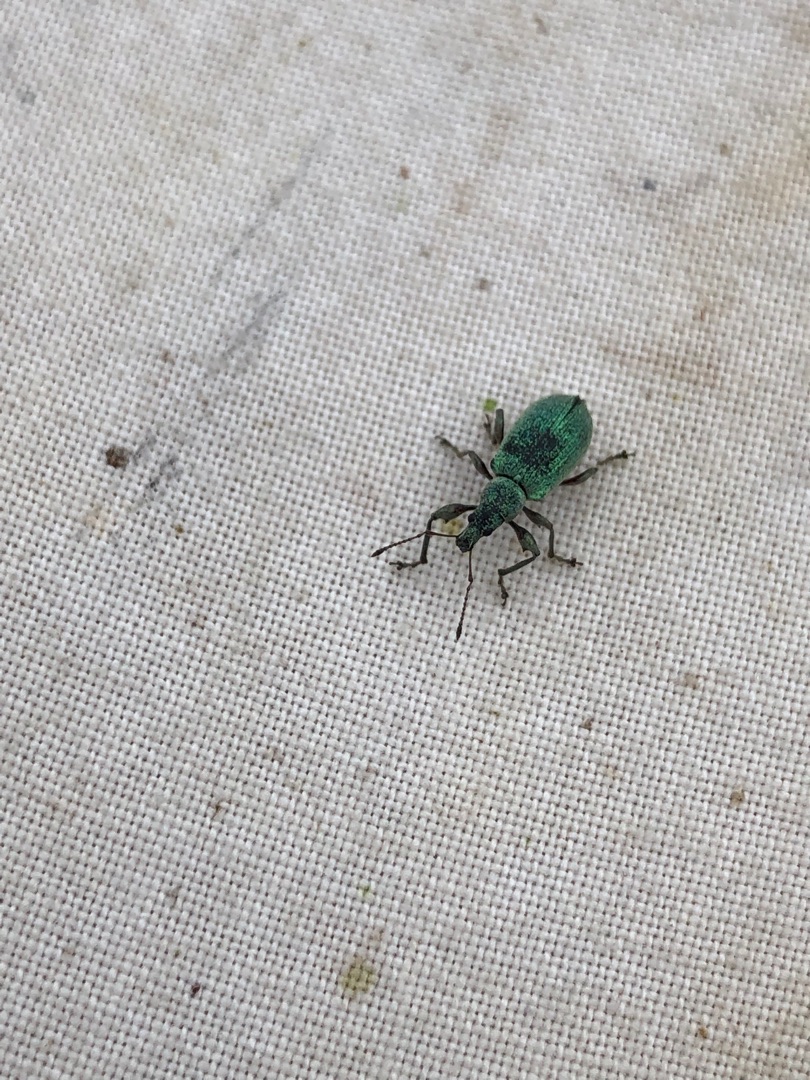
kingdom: Animalia
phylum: Arthropoda
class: Insecta
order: Coleoptera
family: Curculionidae
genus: Phyllobius
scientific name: Phyllobius pomaceus
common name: Nældesnudebille
